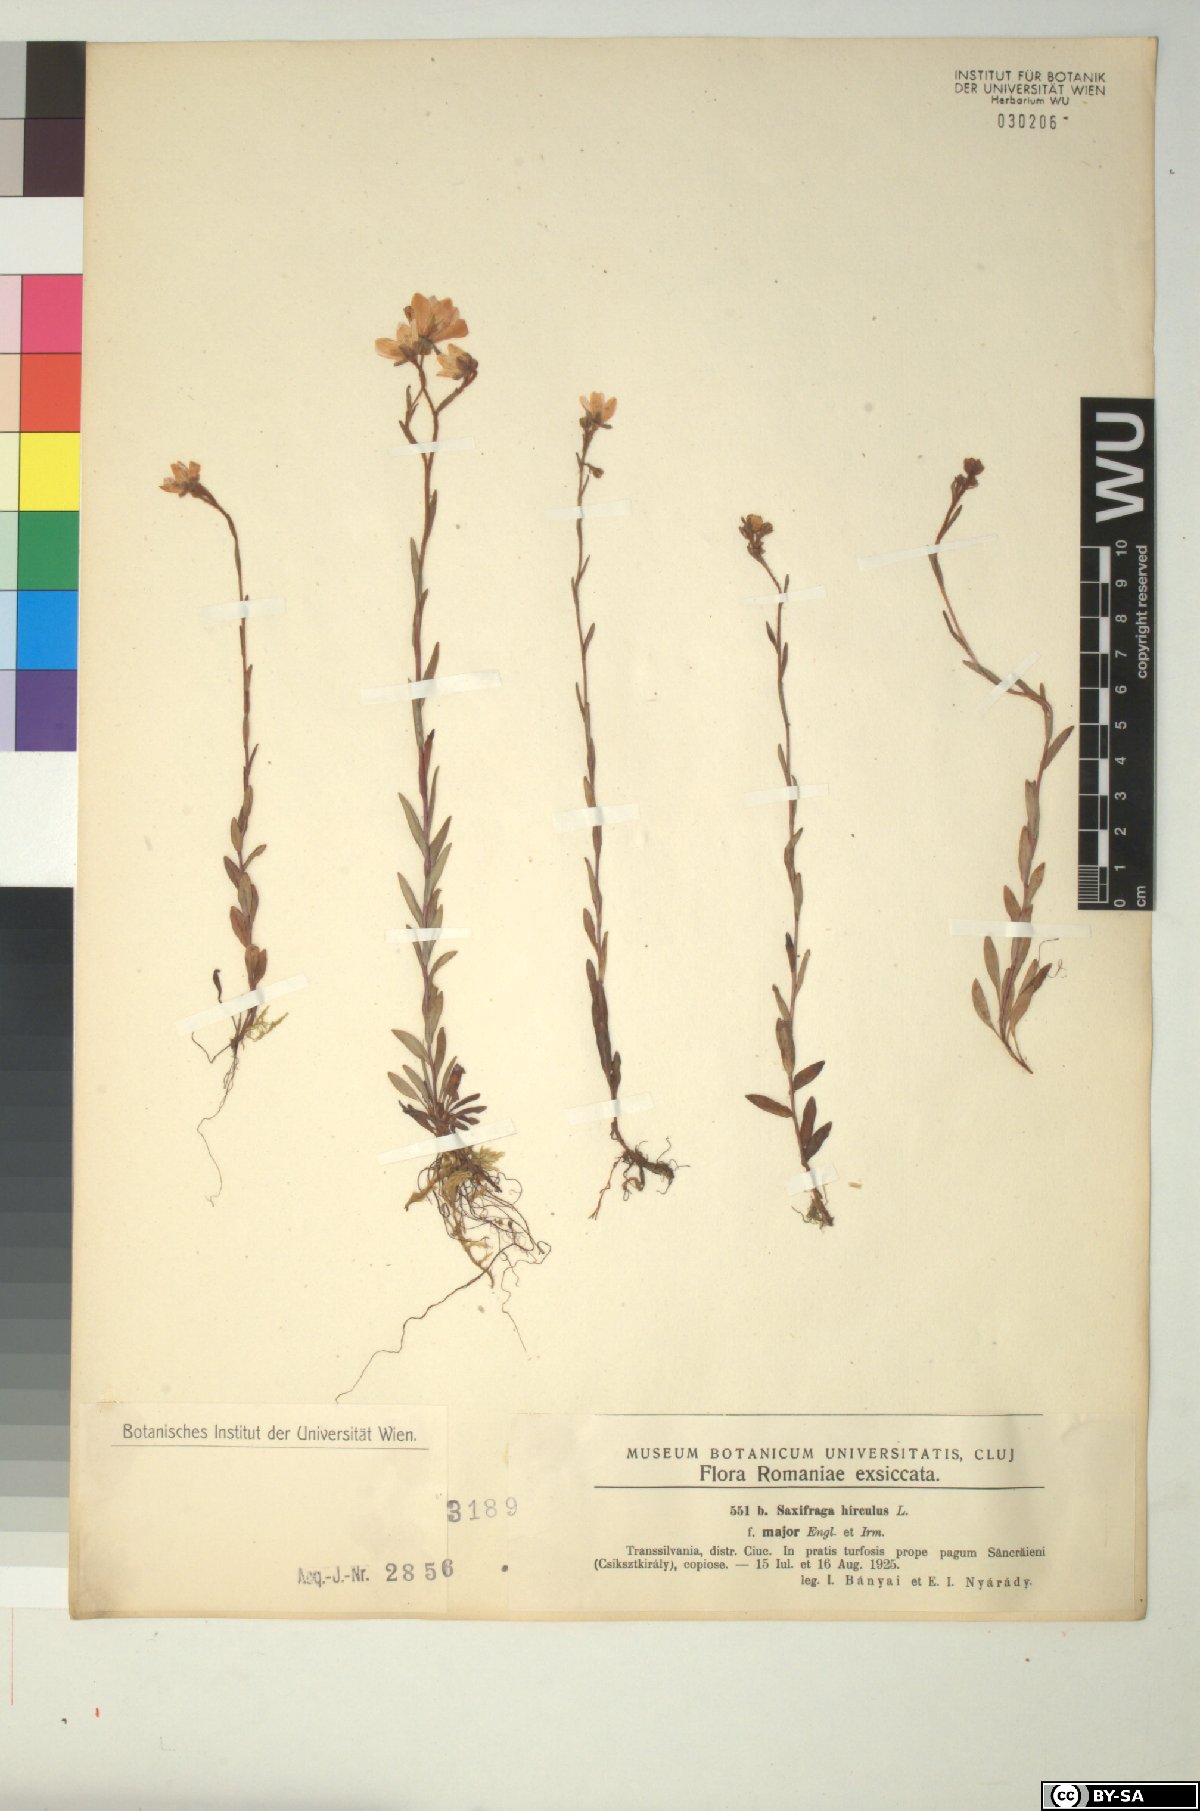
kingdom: Plantae
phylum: Tracheophyta
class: Magnoliopsida
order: Saxifragales
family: Saxifragaceae
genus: Saxifraga
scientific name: Saxifraga hirculus
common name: Yellow marsh saxifrage
